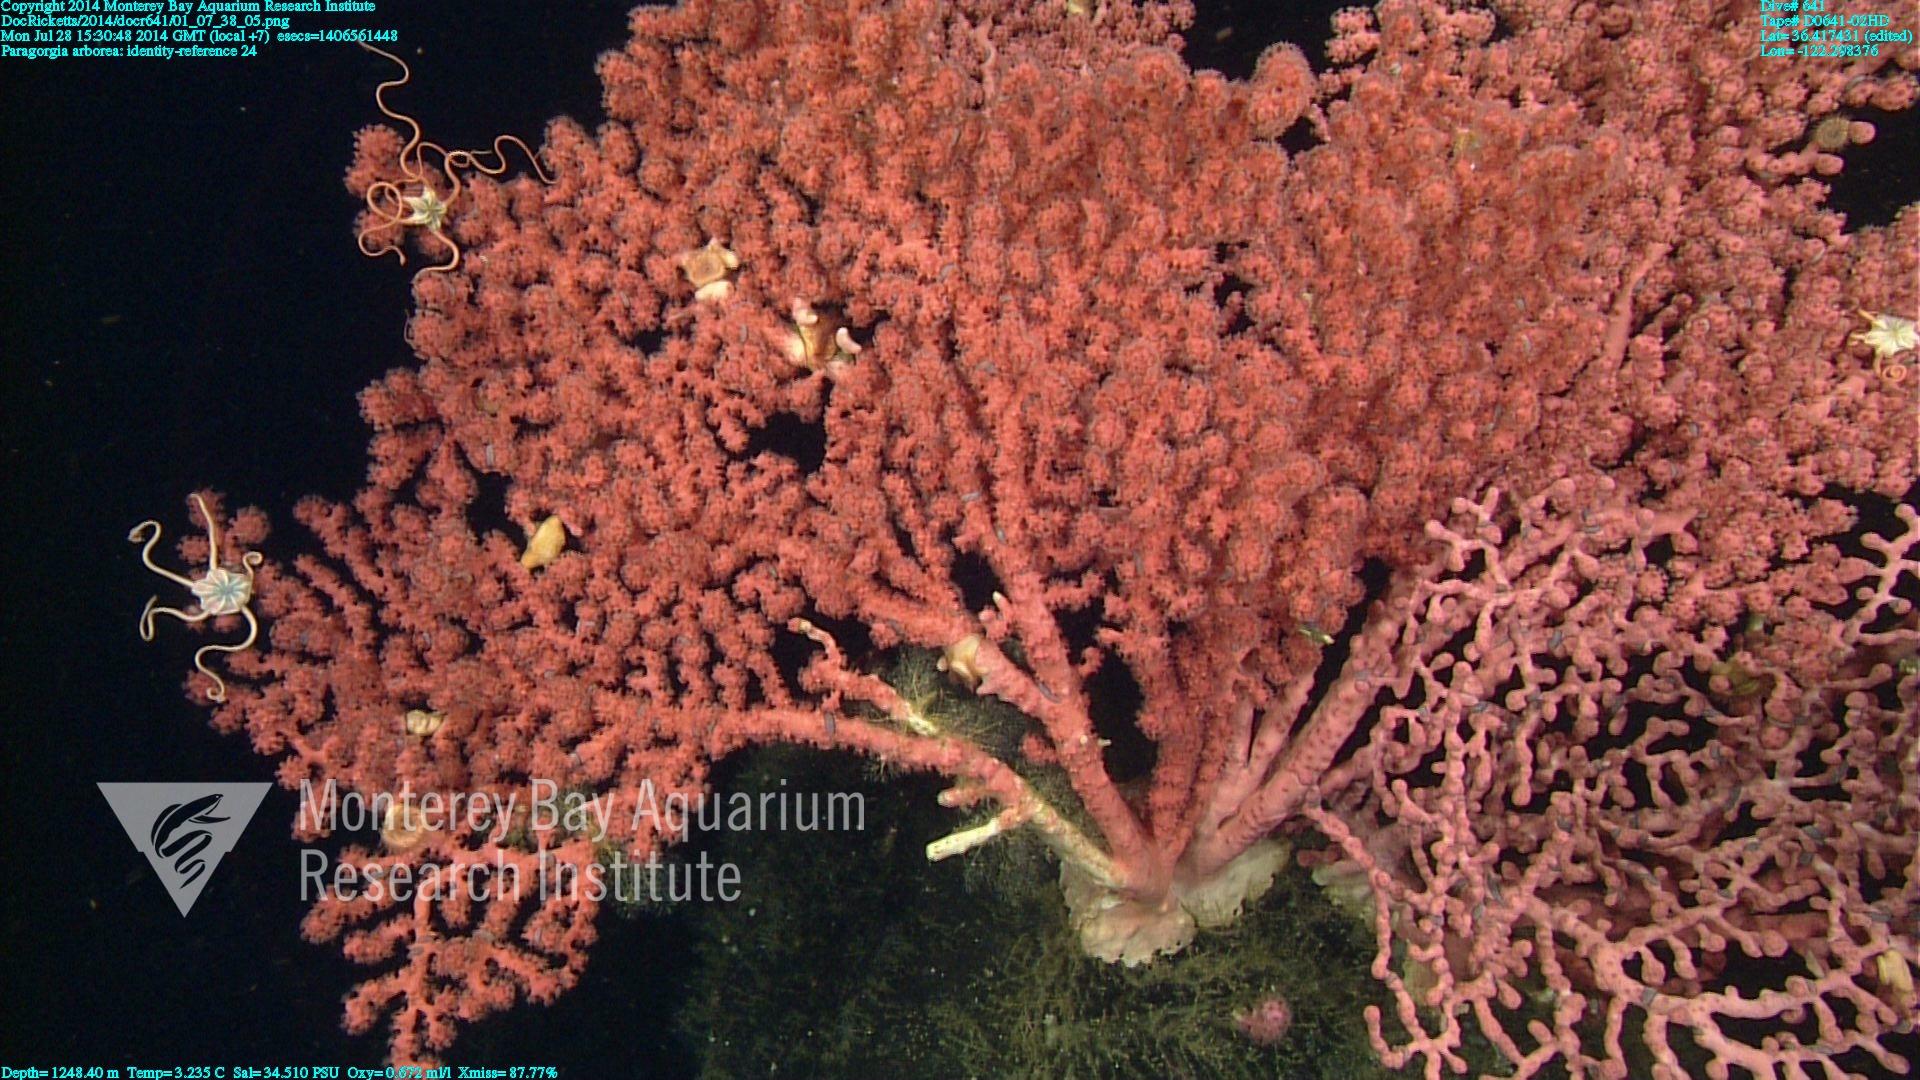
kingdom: Animalia
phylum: Cnidaria
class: Anthozoa
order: Scleralcyonacea
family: Coralliidae
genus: Paragorgia
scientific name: Paragorgia arborea
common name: Bubble gum coral
